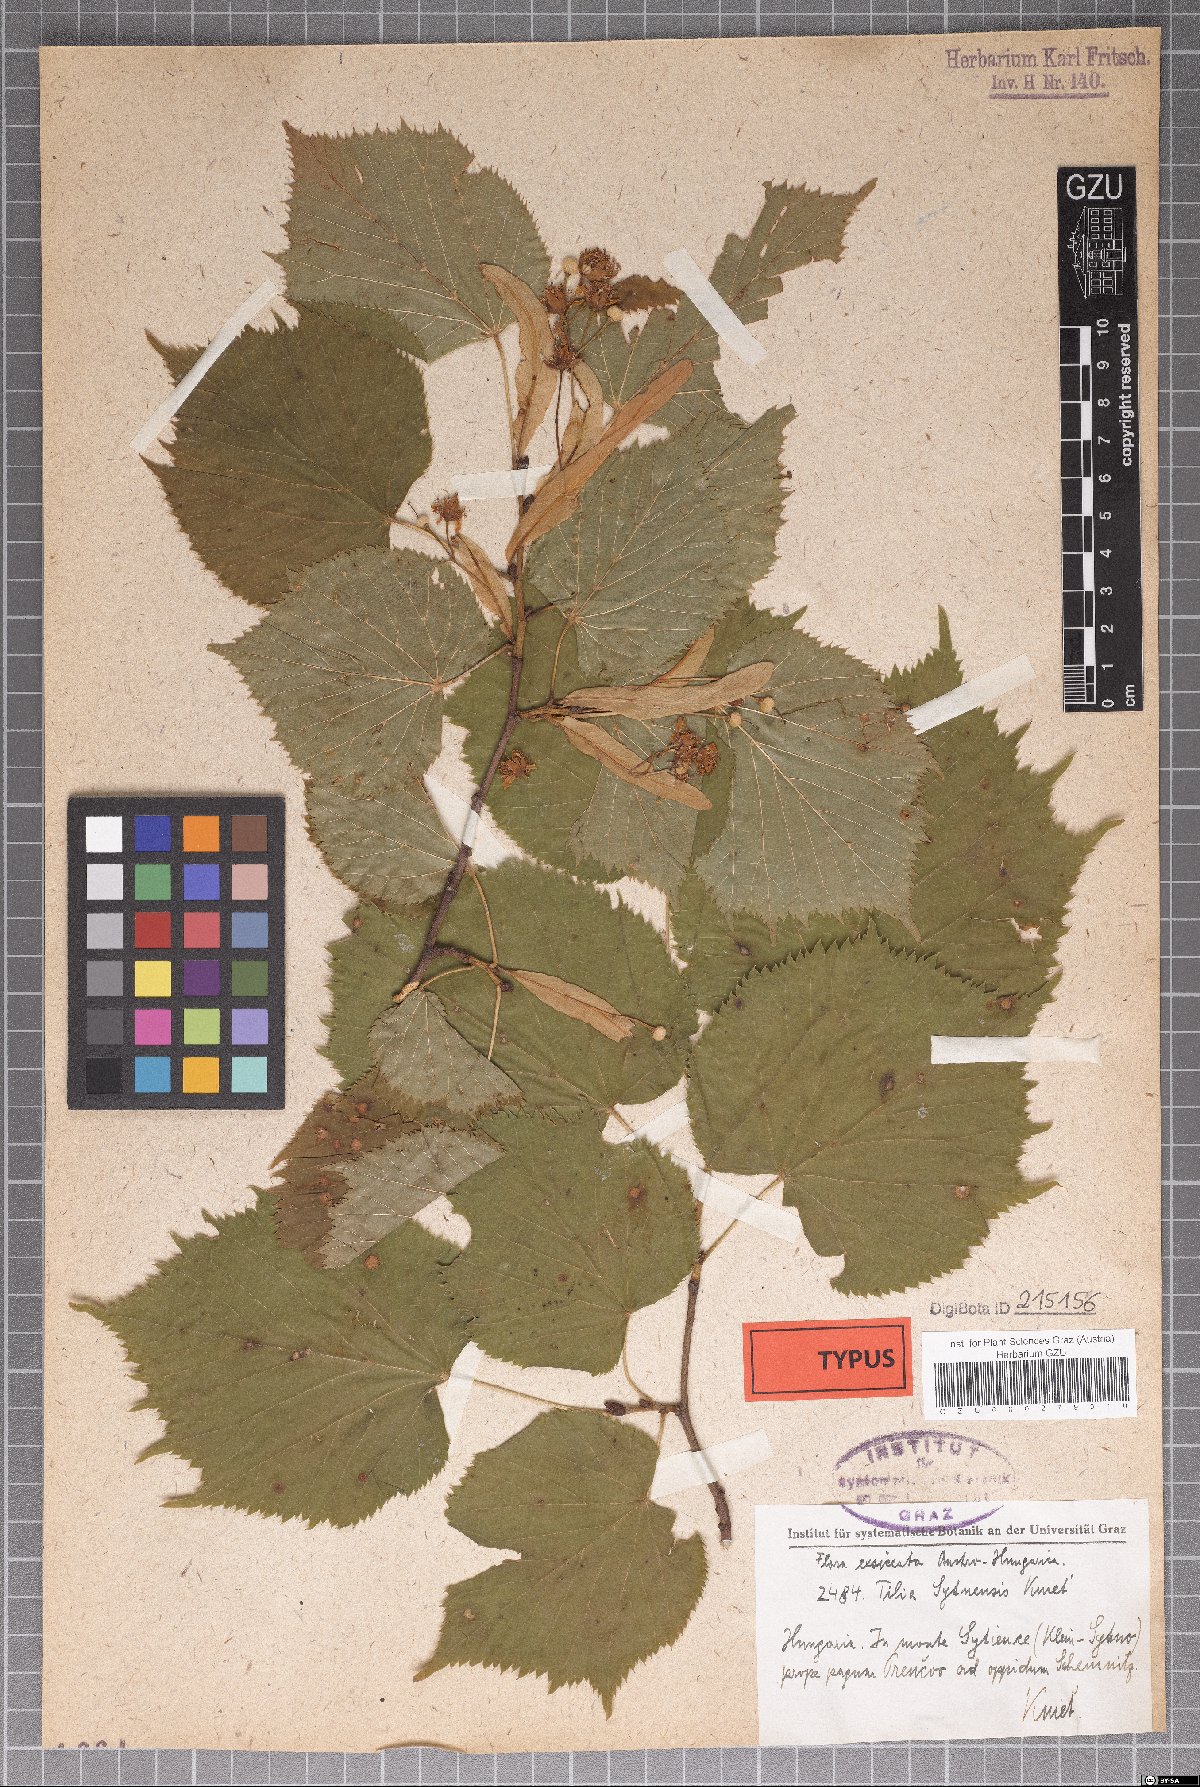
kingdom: Plantae
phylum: Tracheophyta
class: Magnoliopsida
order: Malvales
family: Malvaceae
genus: Tilia
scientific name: Tilia platyphyllos
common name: Large-leaved lime
